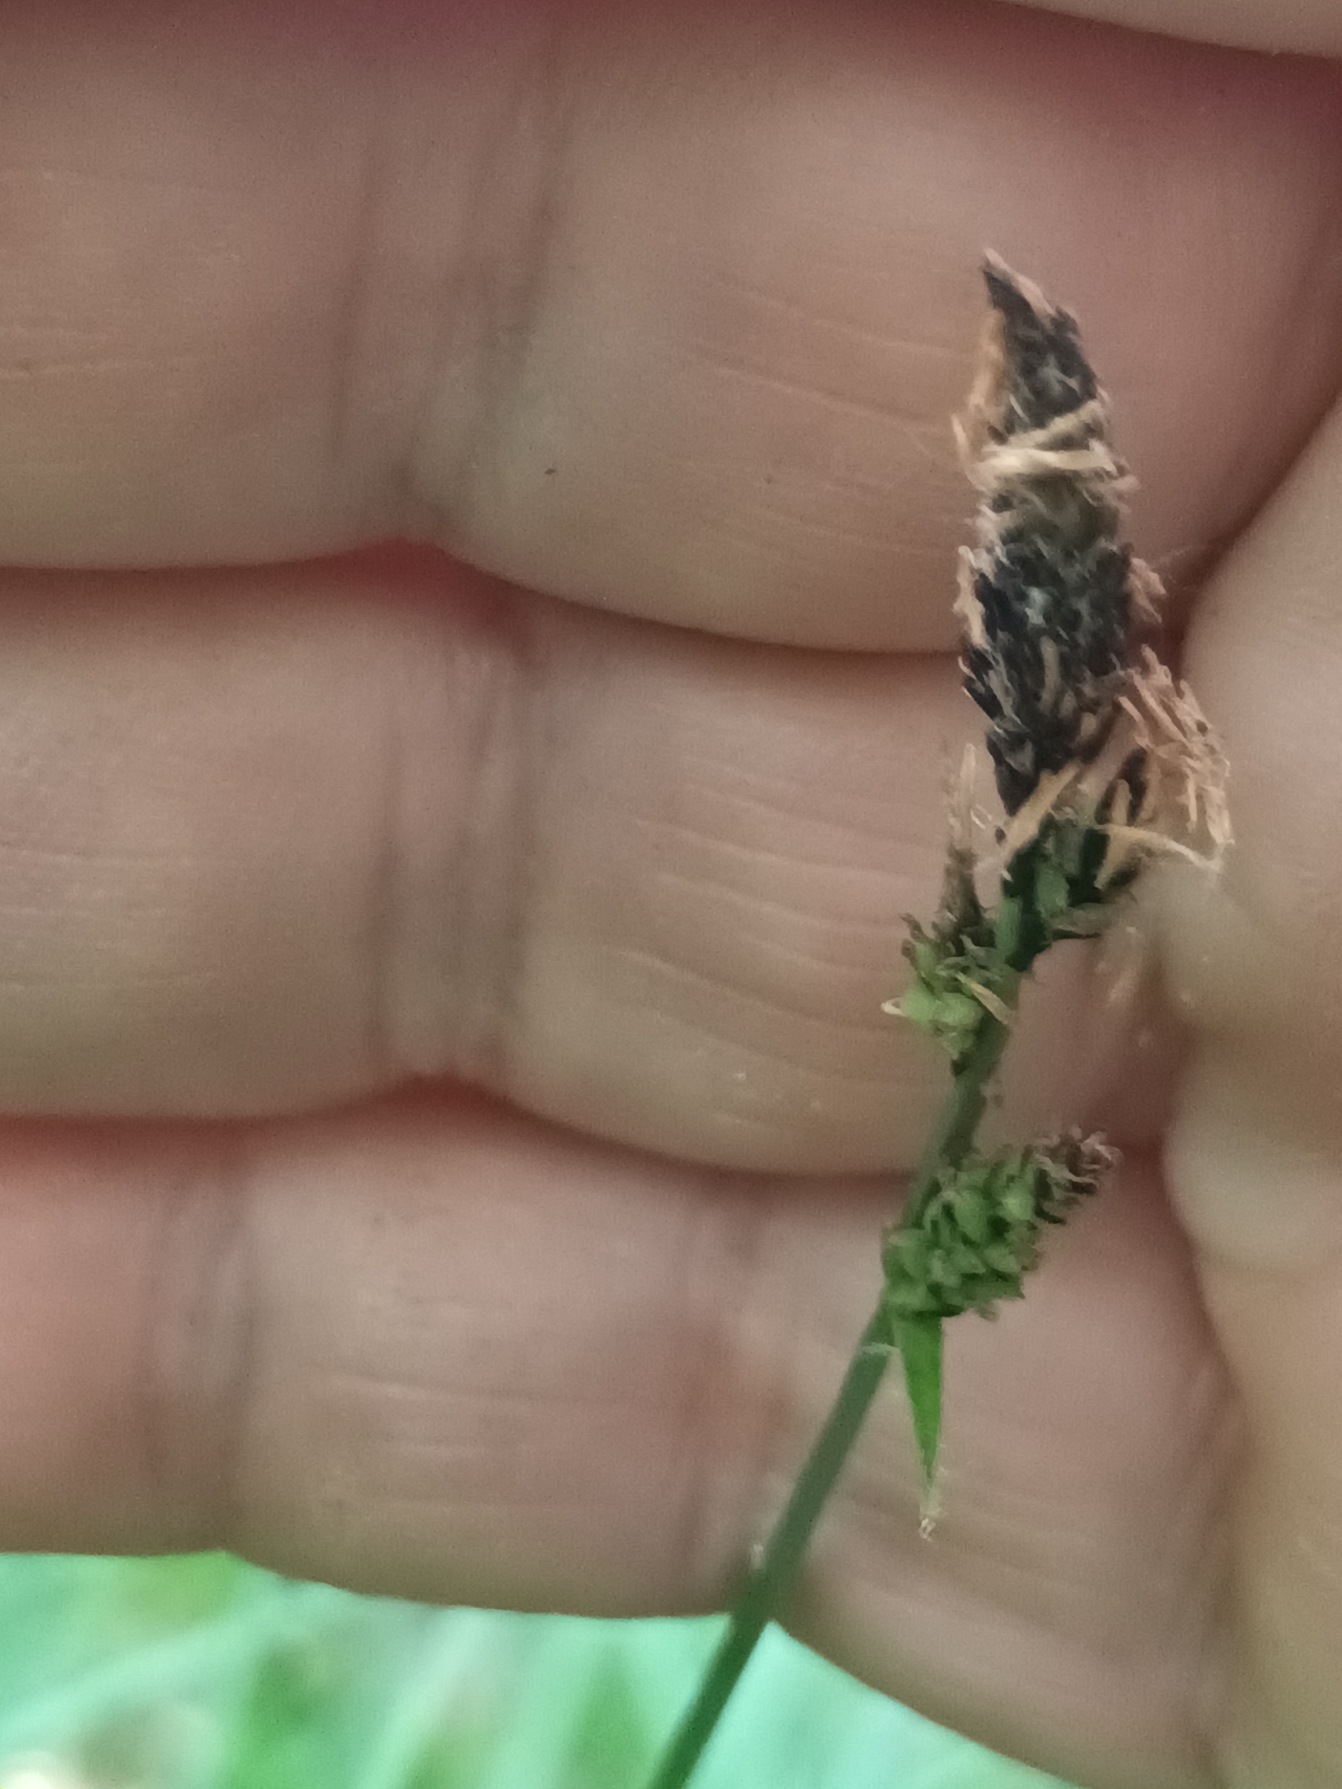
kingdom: Plantae
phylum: Tracheophyta
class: Liliopsida
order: Poales
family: Cyperaceae
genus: Carex
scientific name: Carex cespitosa
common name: Tue-star
